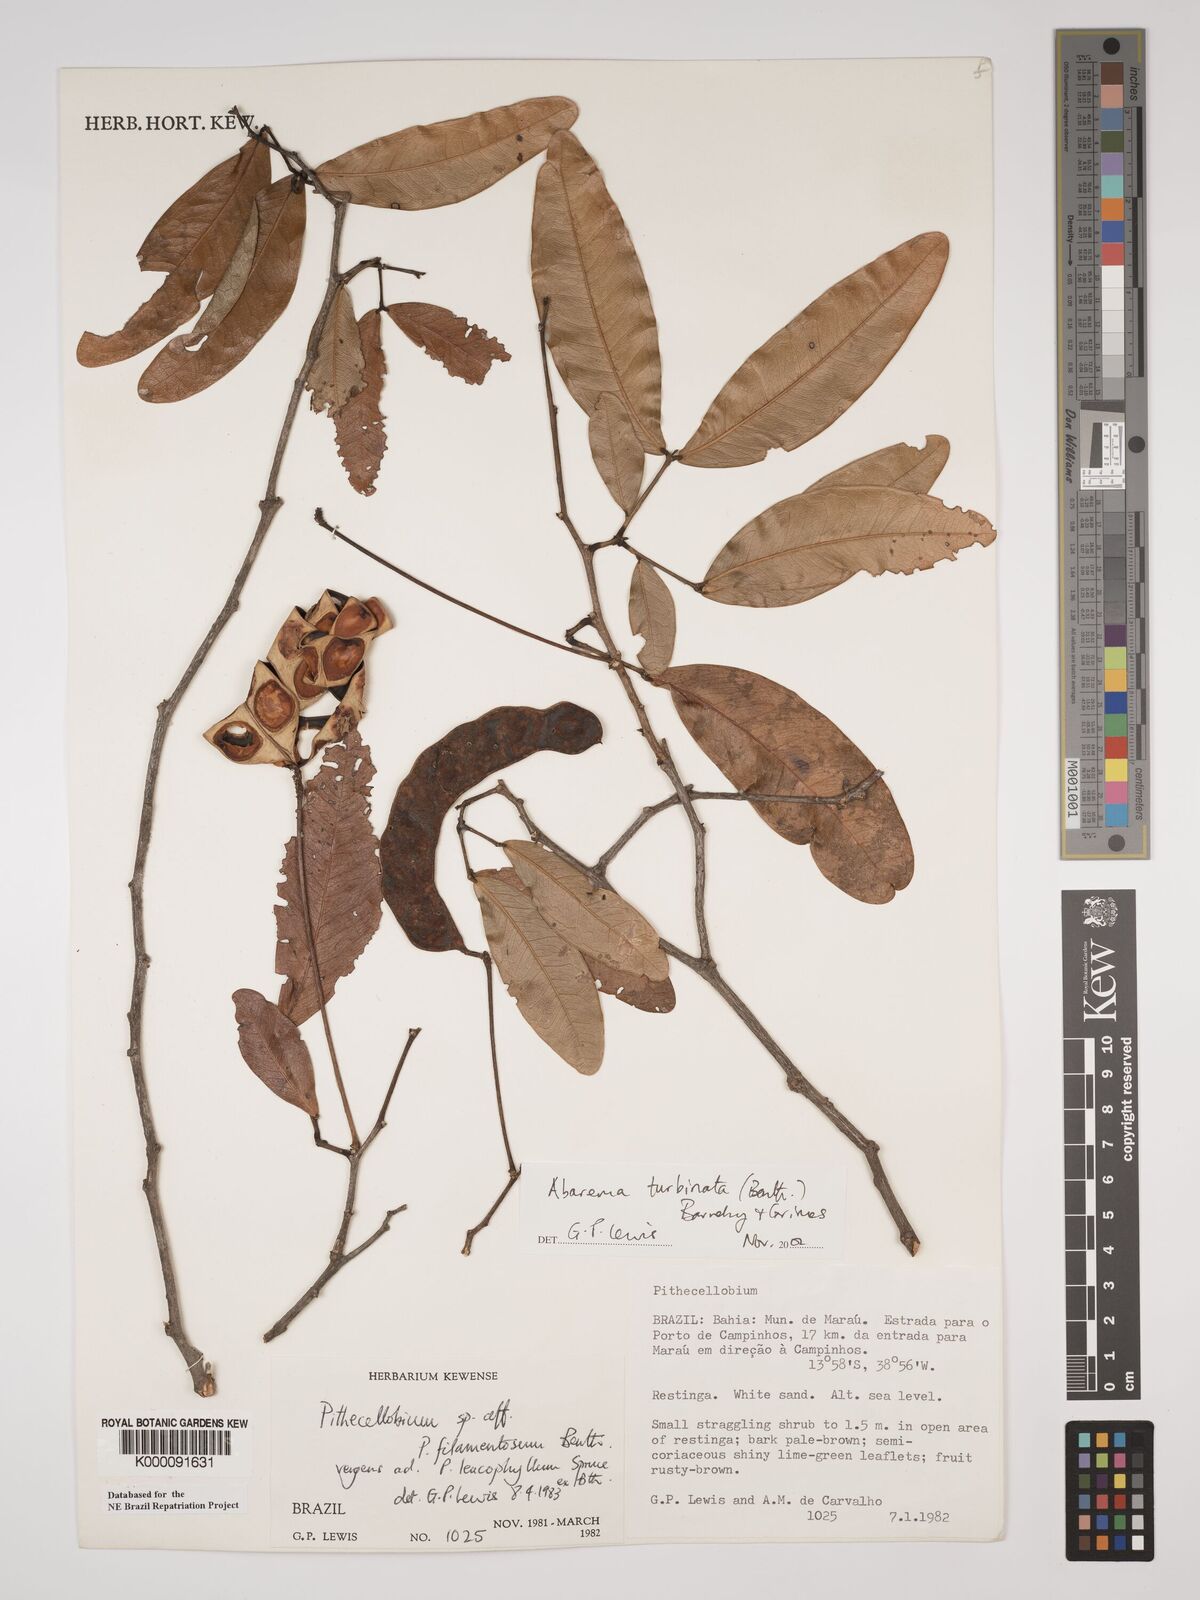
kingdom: Plantae
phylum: Tracheophyta
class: Magnoliopsida
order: Fabales
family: Fabaceae
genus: Jupunba
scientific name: Jupunba turbinata
